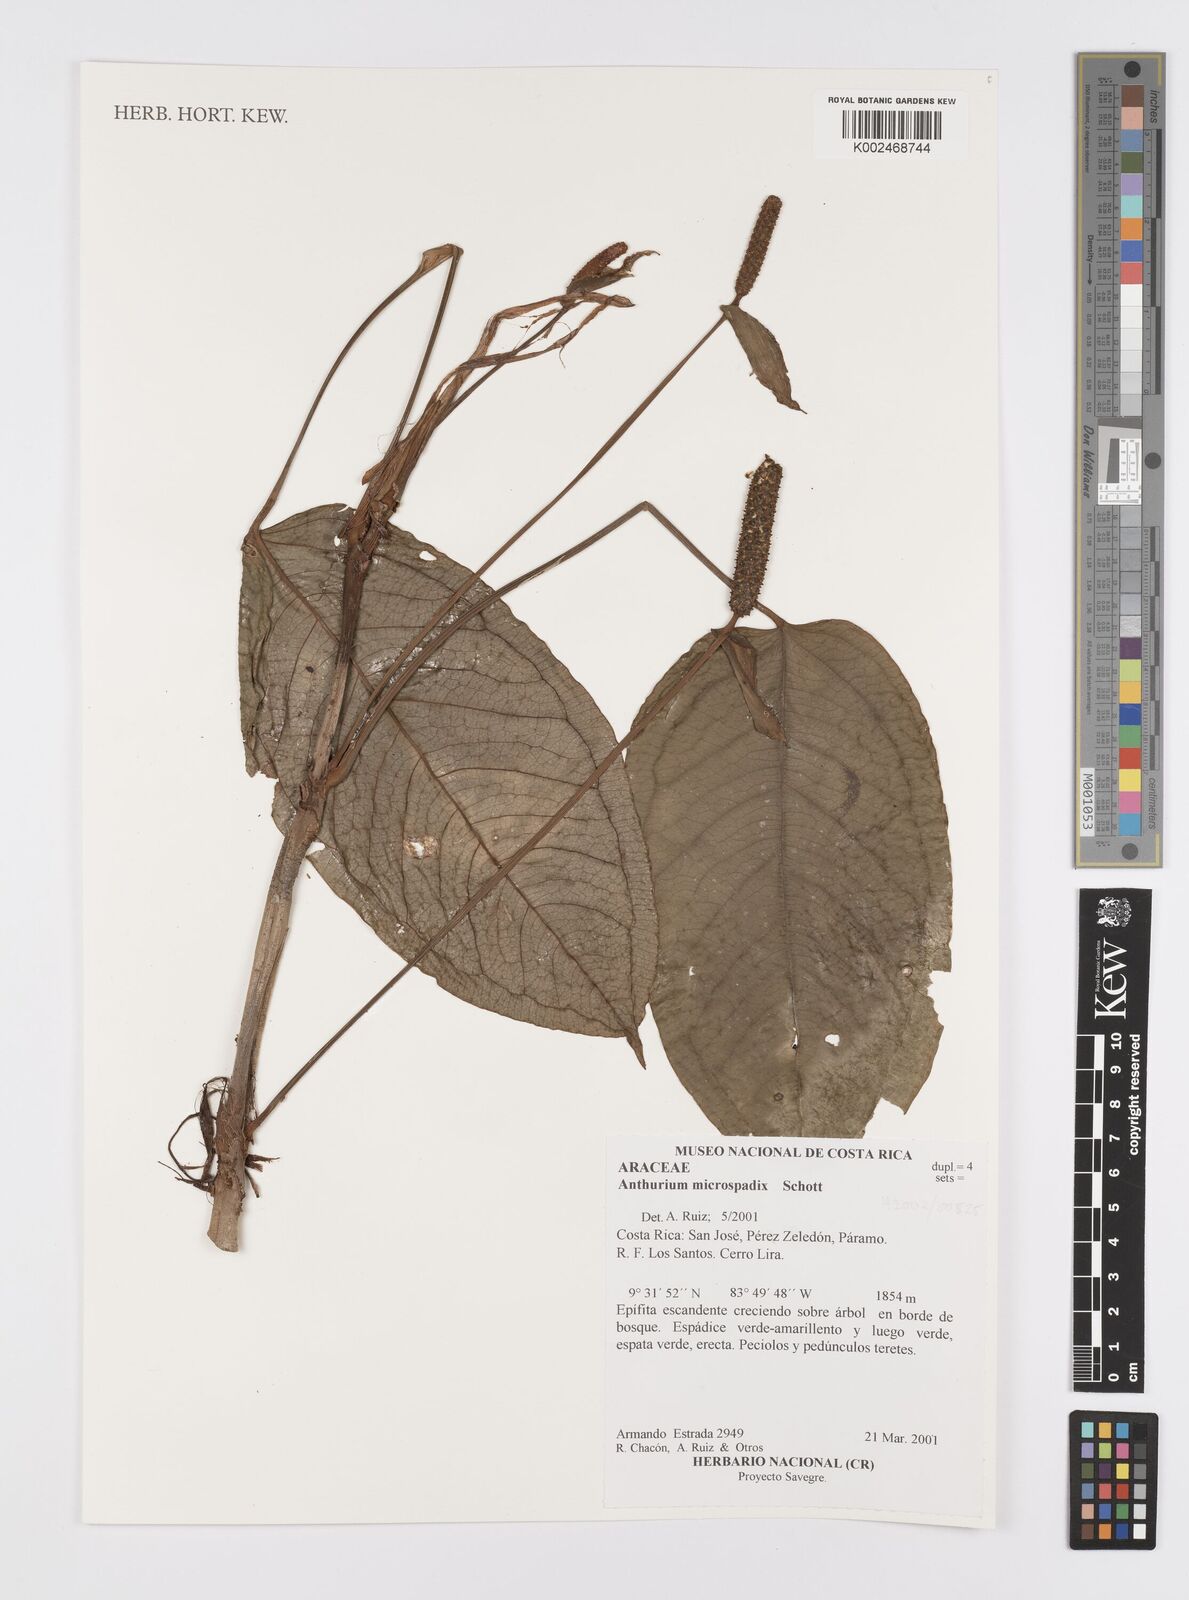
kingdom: Plantae
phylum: Tracheophyta
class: Liliopsida
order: Alismatales
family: Araceae
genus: Anthurium
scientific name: Anthurium microspadix
